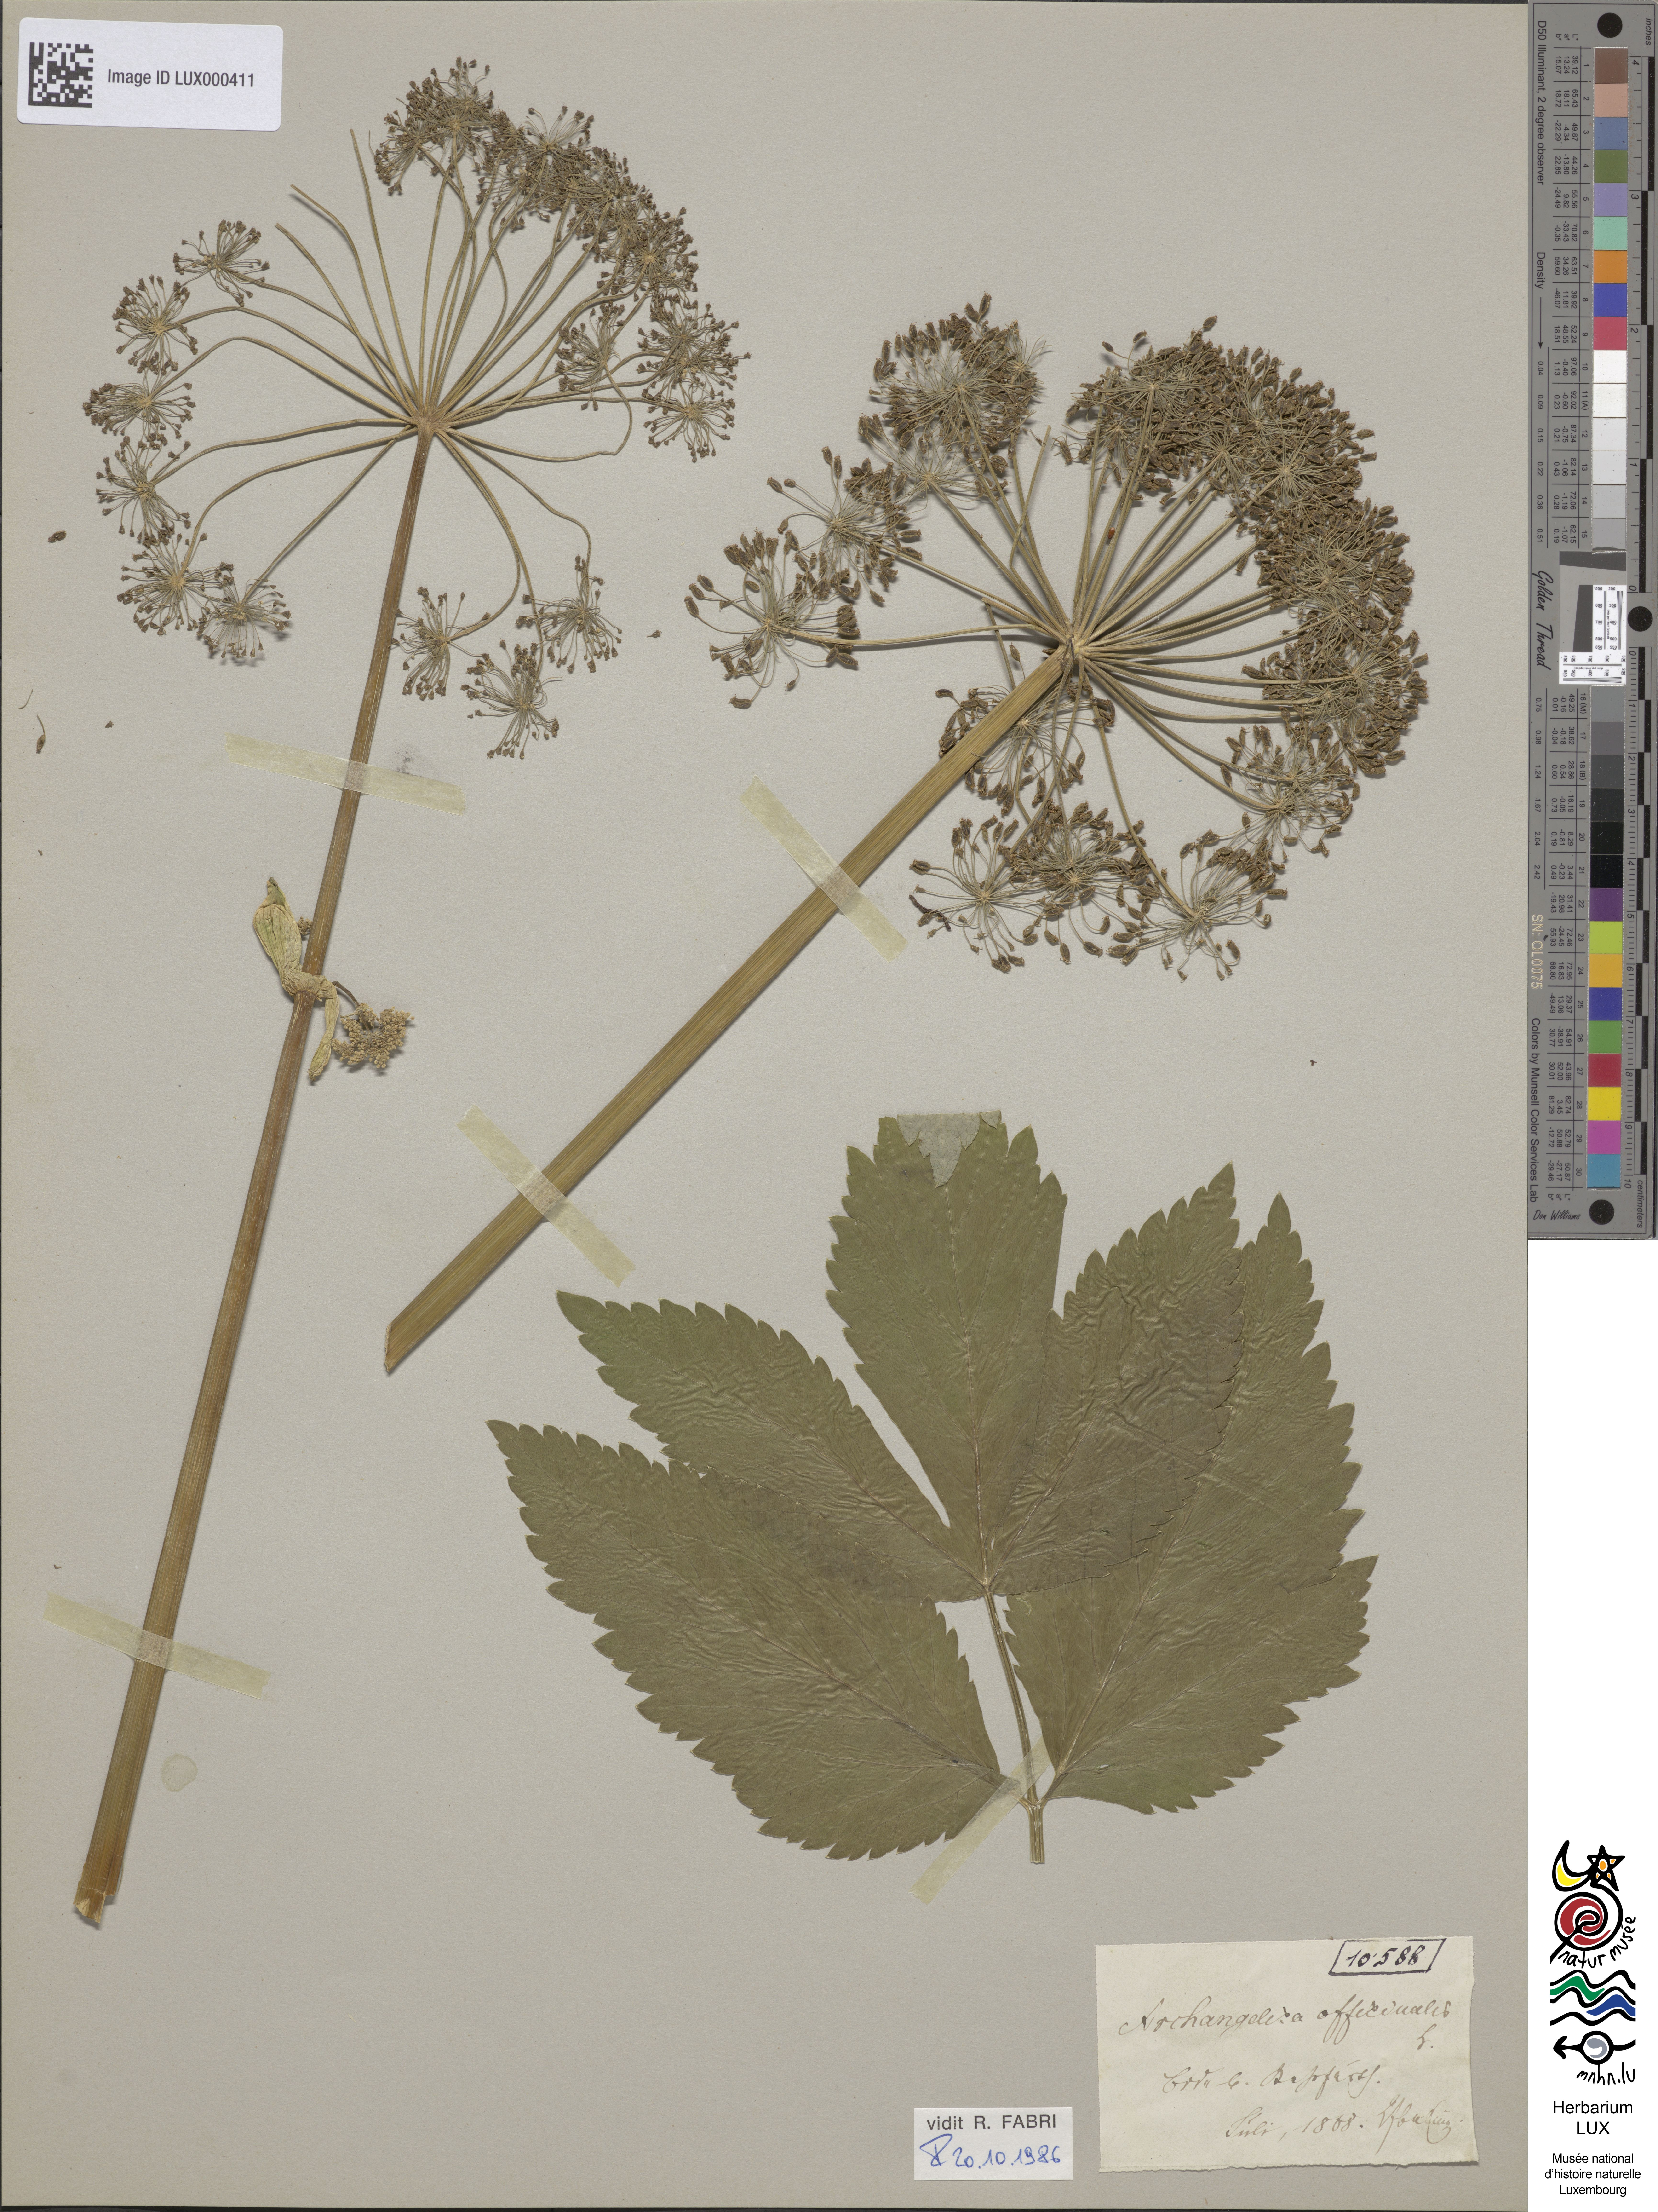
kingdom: Plantae
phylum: Tracheophyta
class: Magnoliopsida
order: Apiales
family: Apiaceae
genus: Angelica
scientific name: Angelica archangelica
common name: Garden angelica
